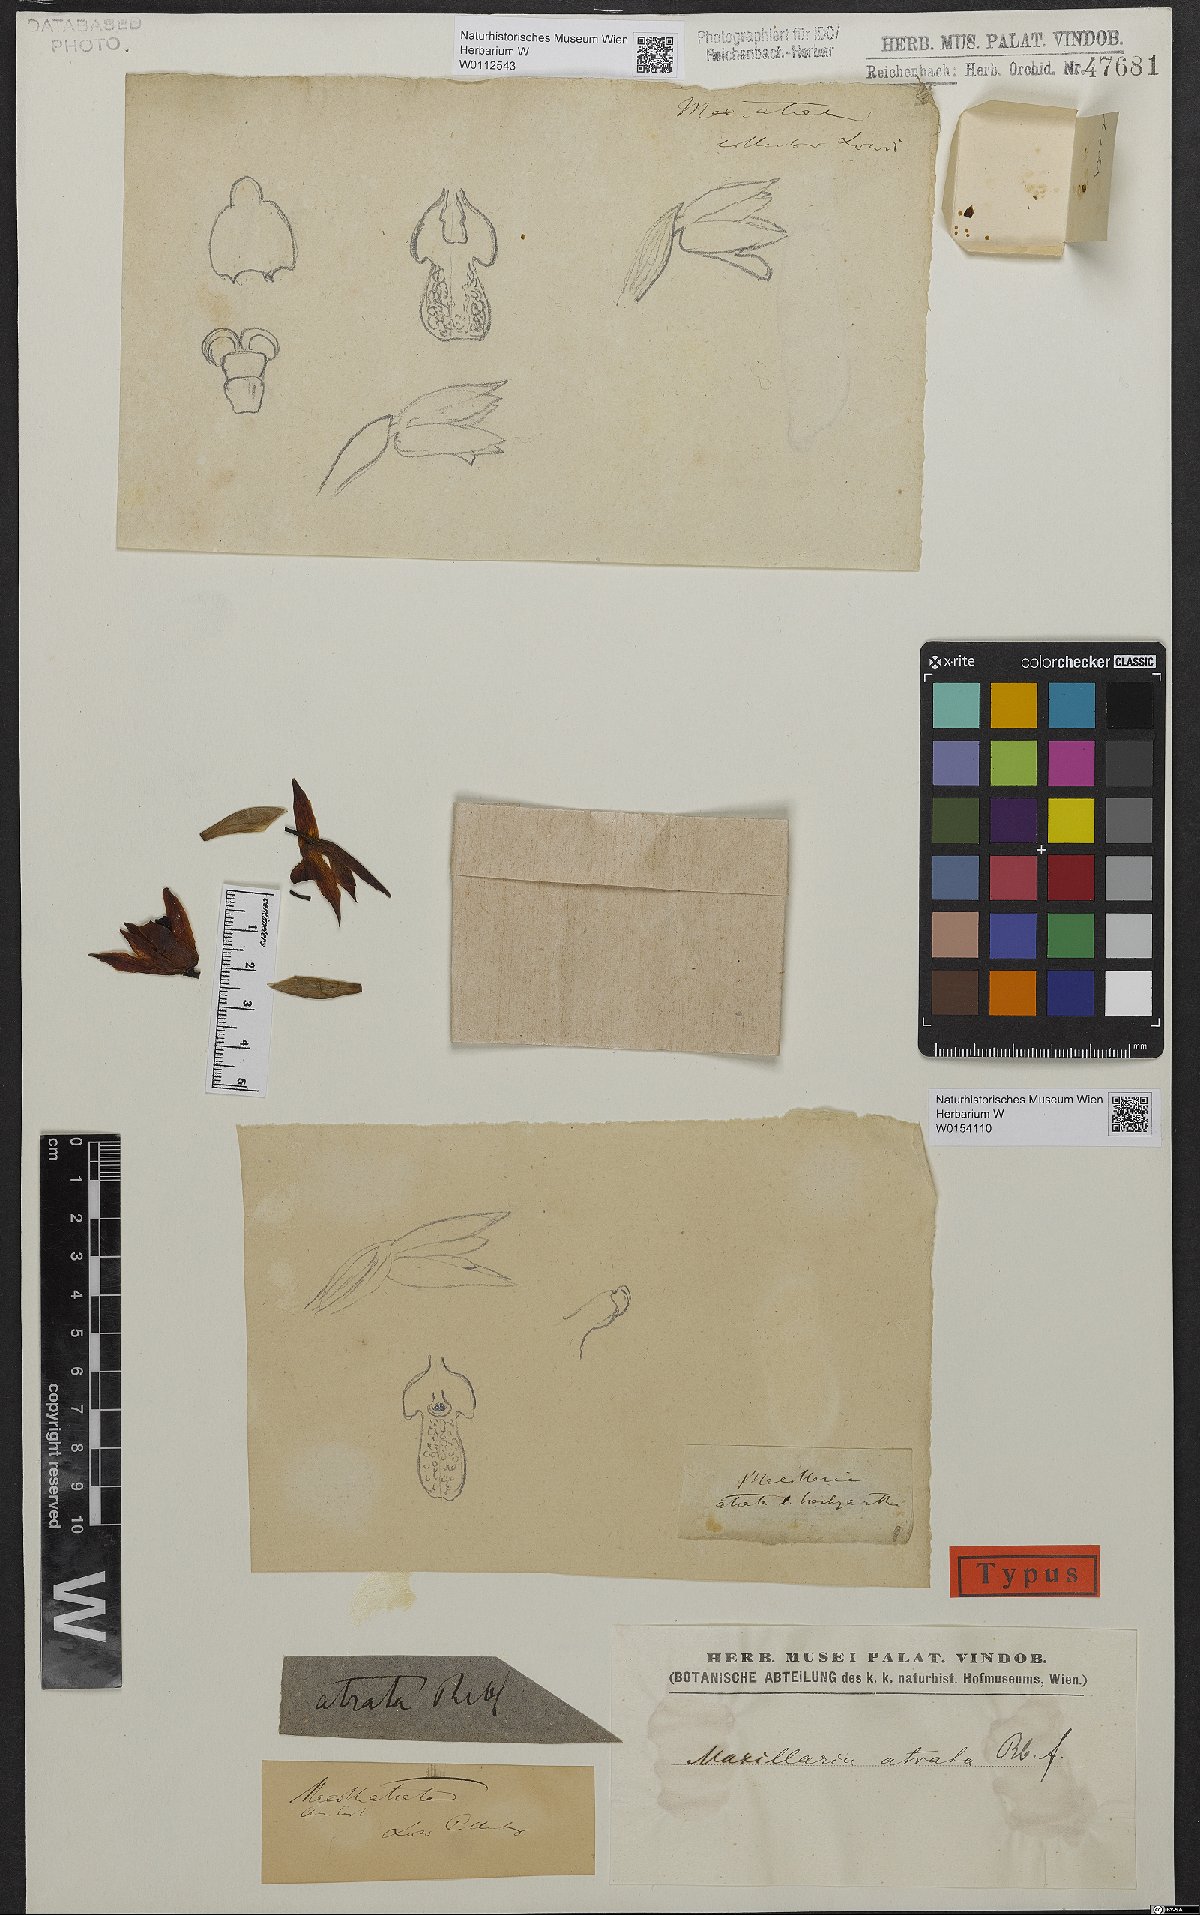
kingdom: Plantae
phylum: Tracheophyta
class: Liliopsida
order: Asparagales
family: Orchidaceae
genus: Maxillaria
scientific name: Maxillaria cucullata
